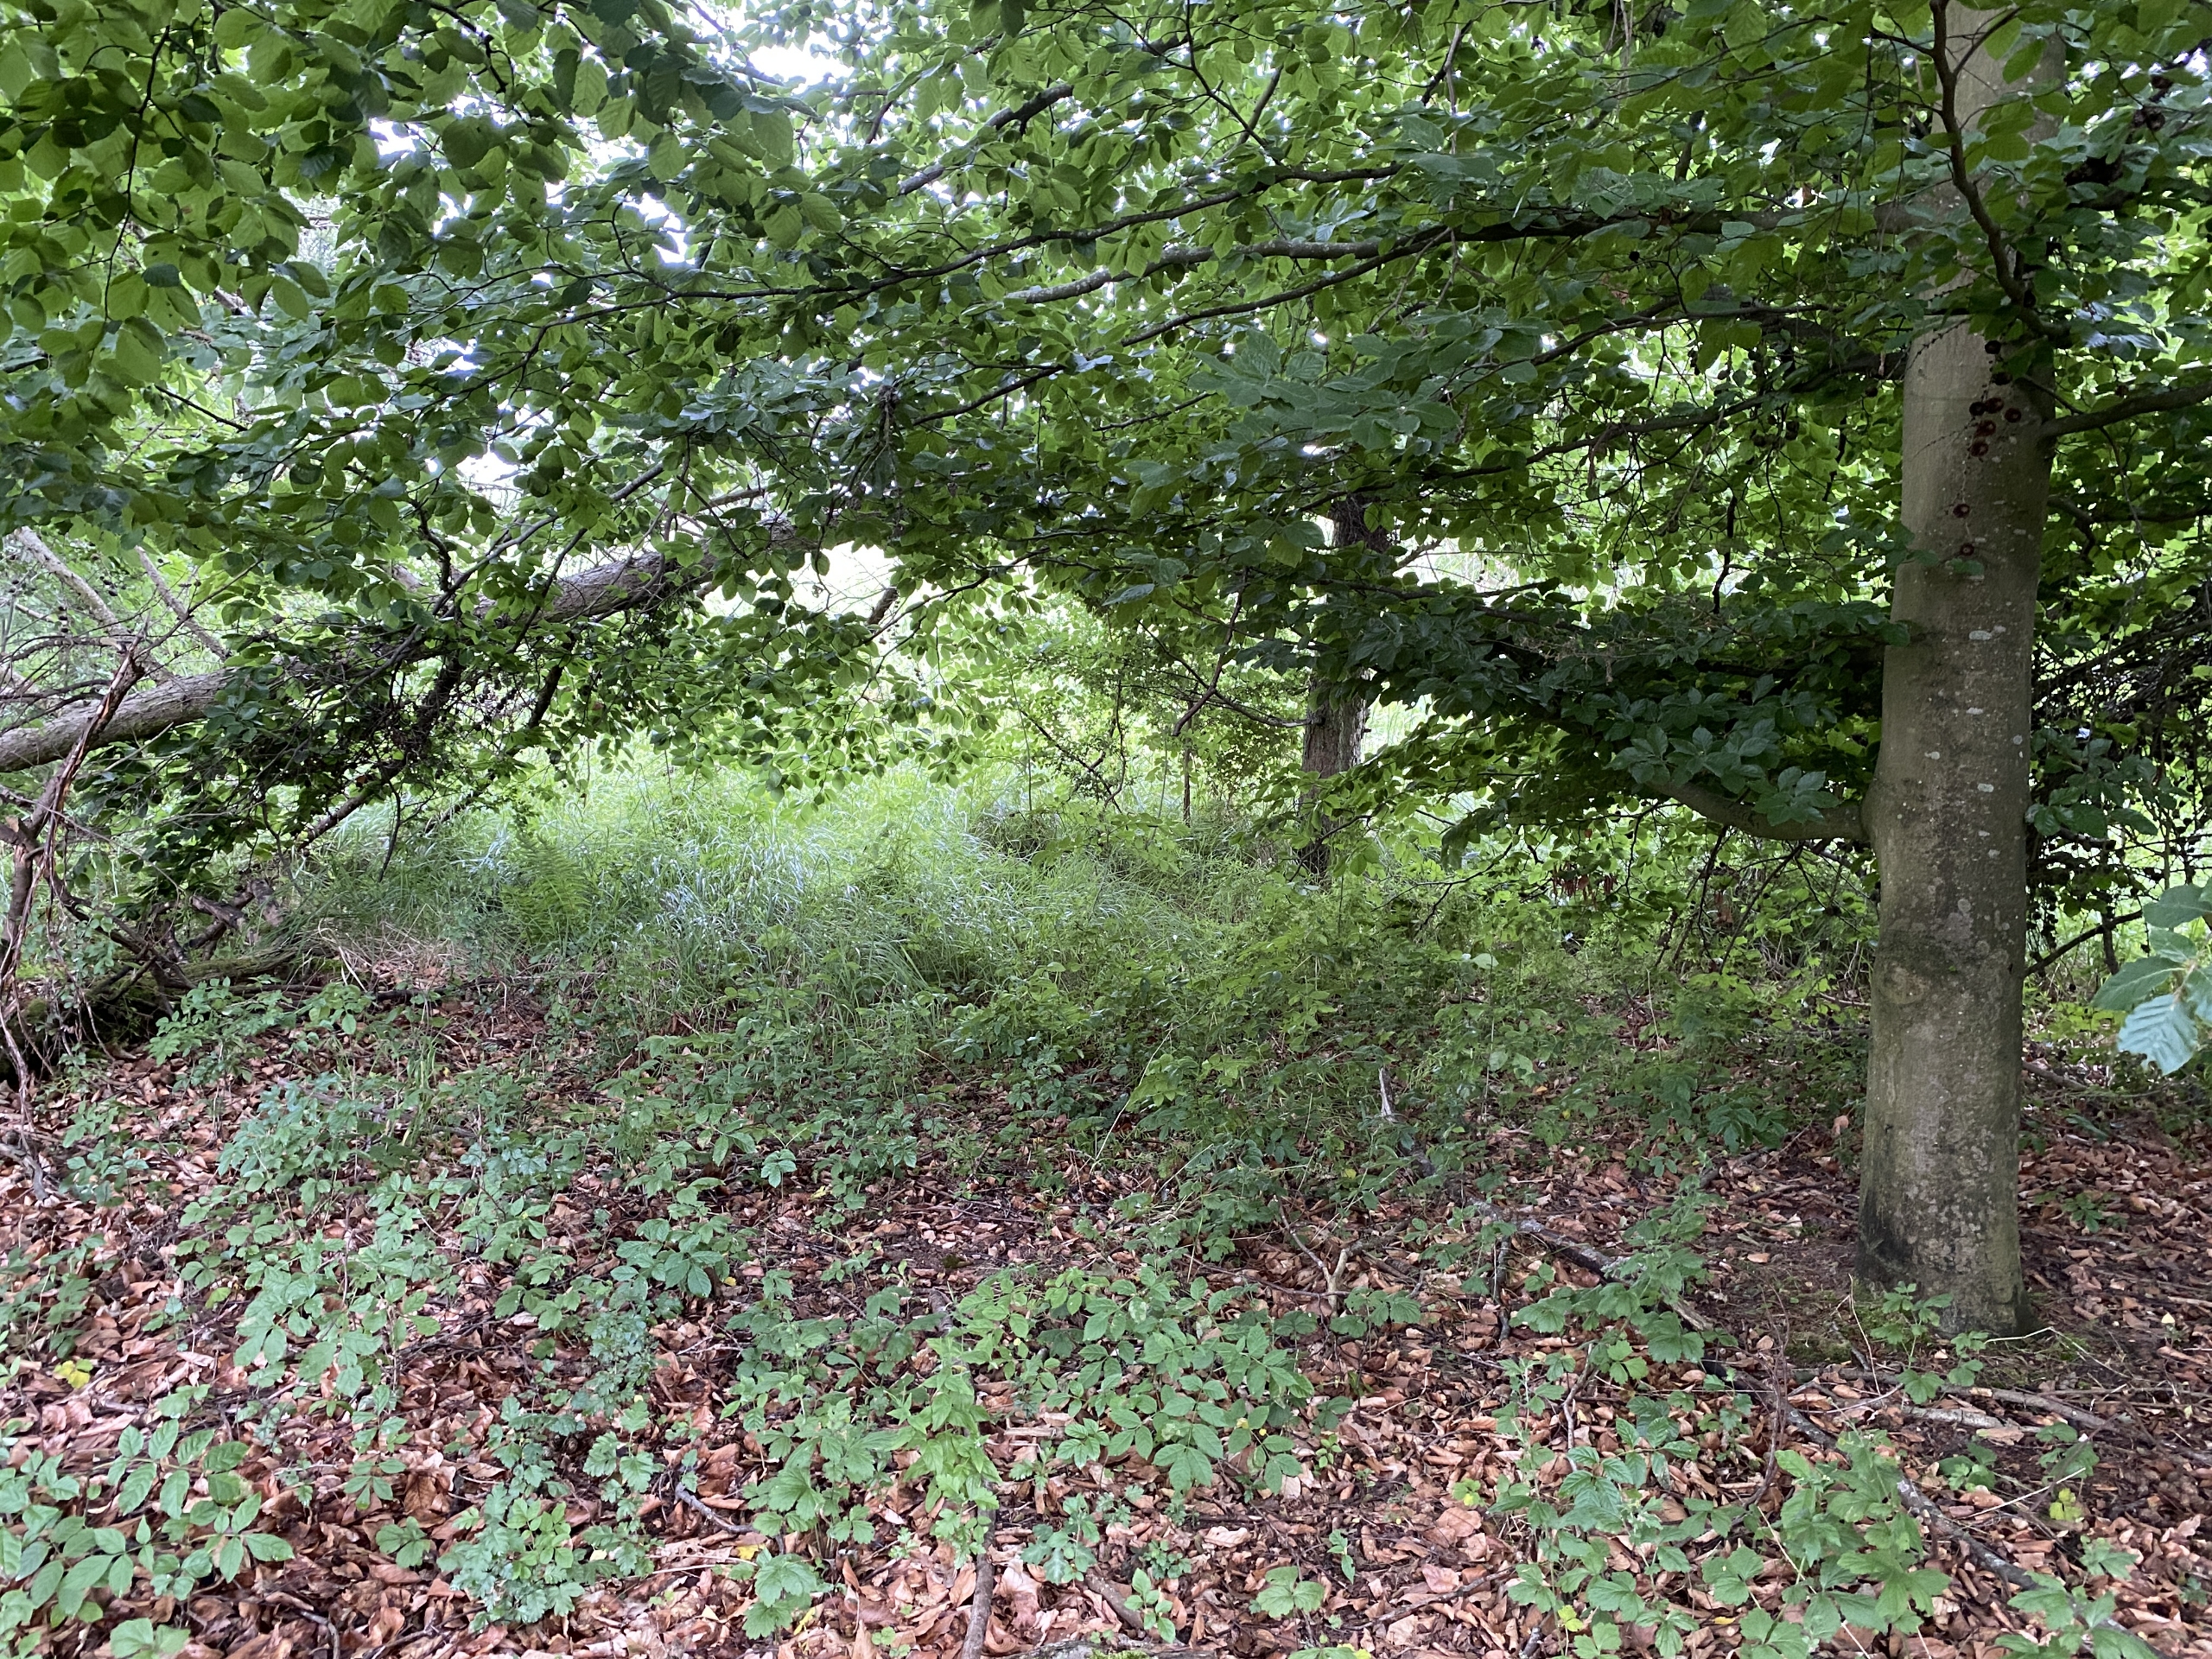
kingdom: Plantae
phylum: Tracheophyta
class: Magnoliopsida
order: Fagales
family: Fagaceae
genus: Fagus
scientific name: Fagus sylvatica
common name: Bøg
